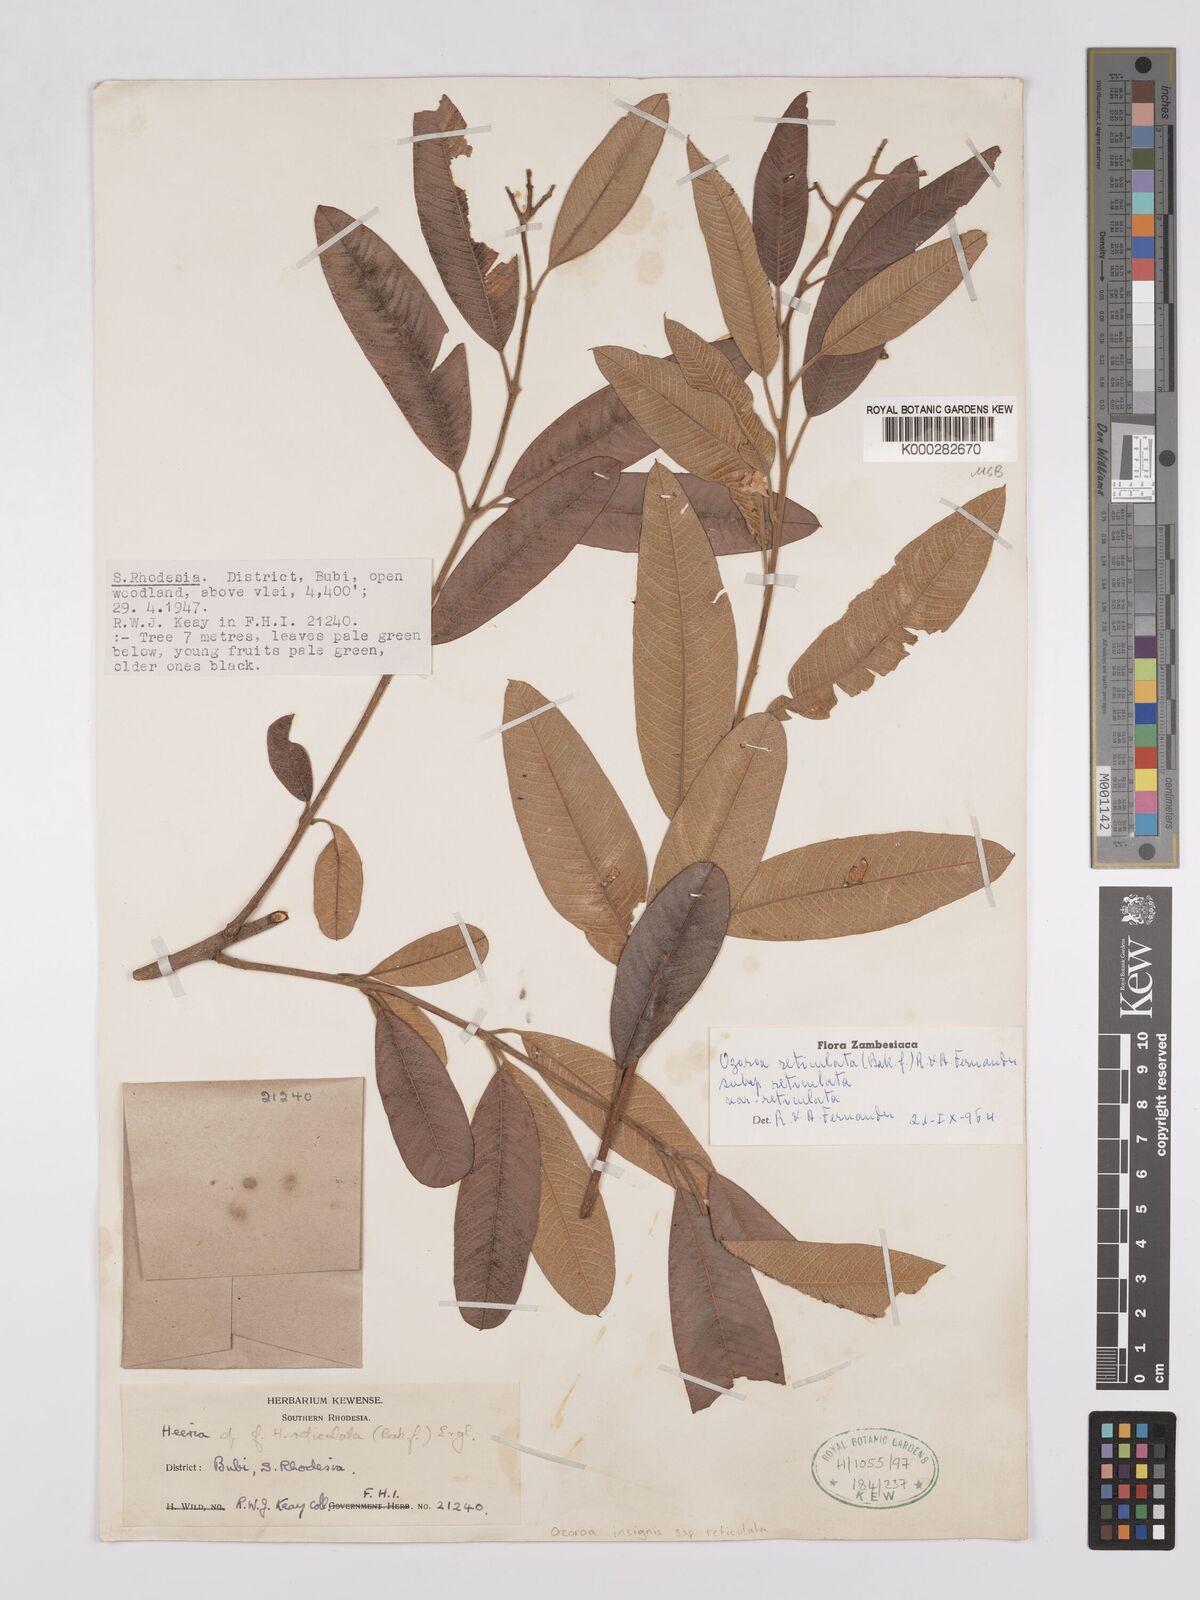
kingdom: Plantae
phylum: Tracheophyta
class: Magnoliopsida
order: Sapindales
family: Anacardiaceae
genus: Ozoroa
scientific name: Ozoroa insignis
